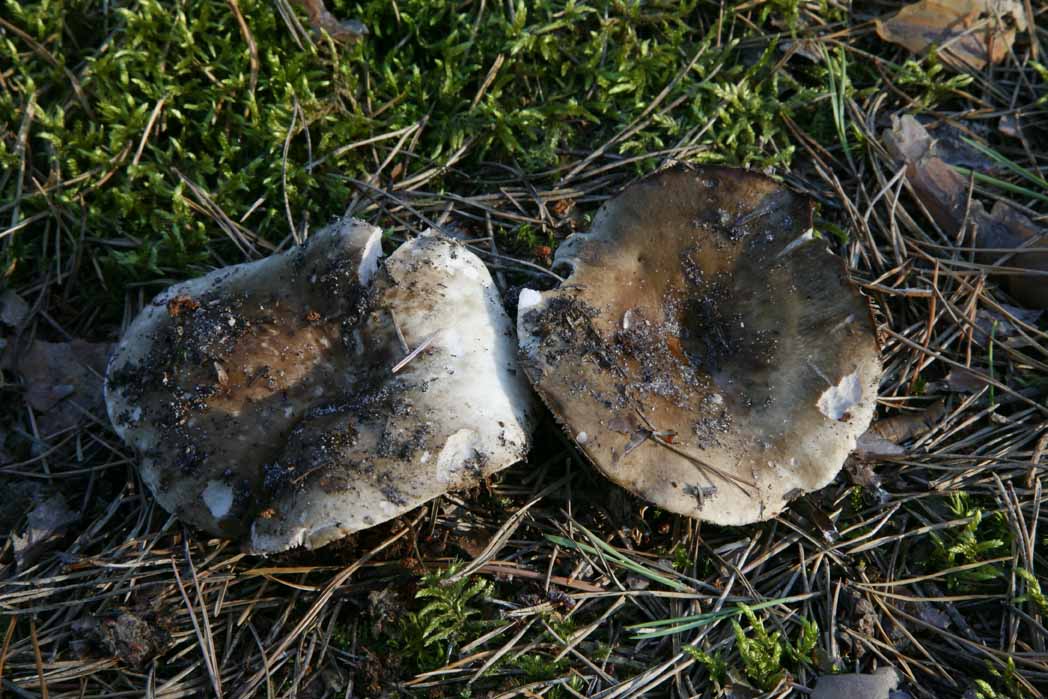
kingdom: Fungi
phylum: Basidiomycota
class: Agaricomycetes
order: Russulales
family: Russulaceae
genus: Russula
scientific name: Russula adusta
